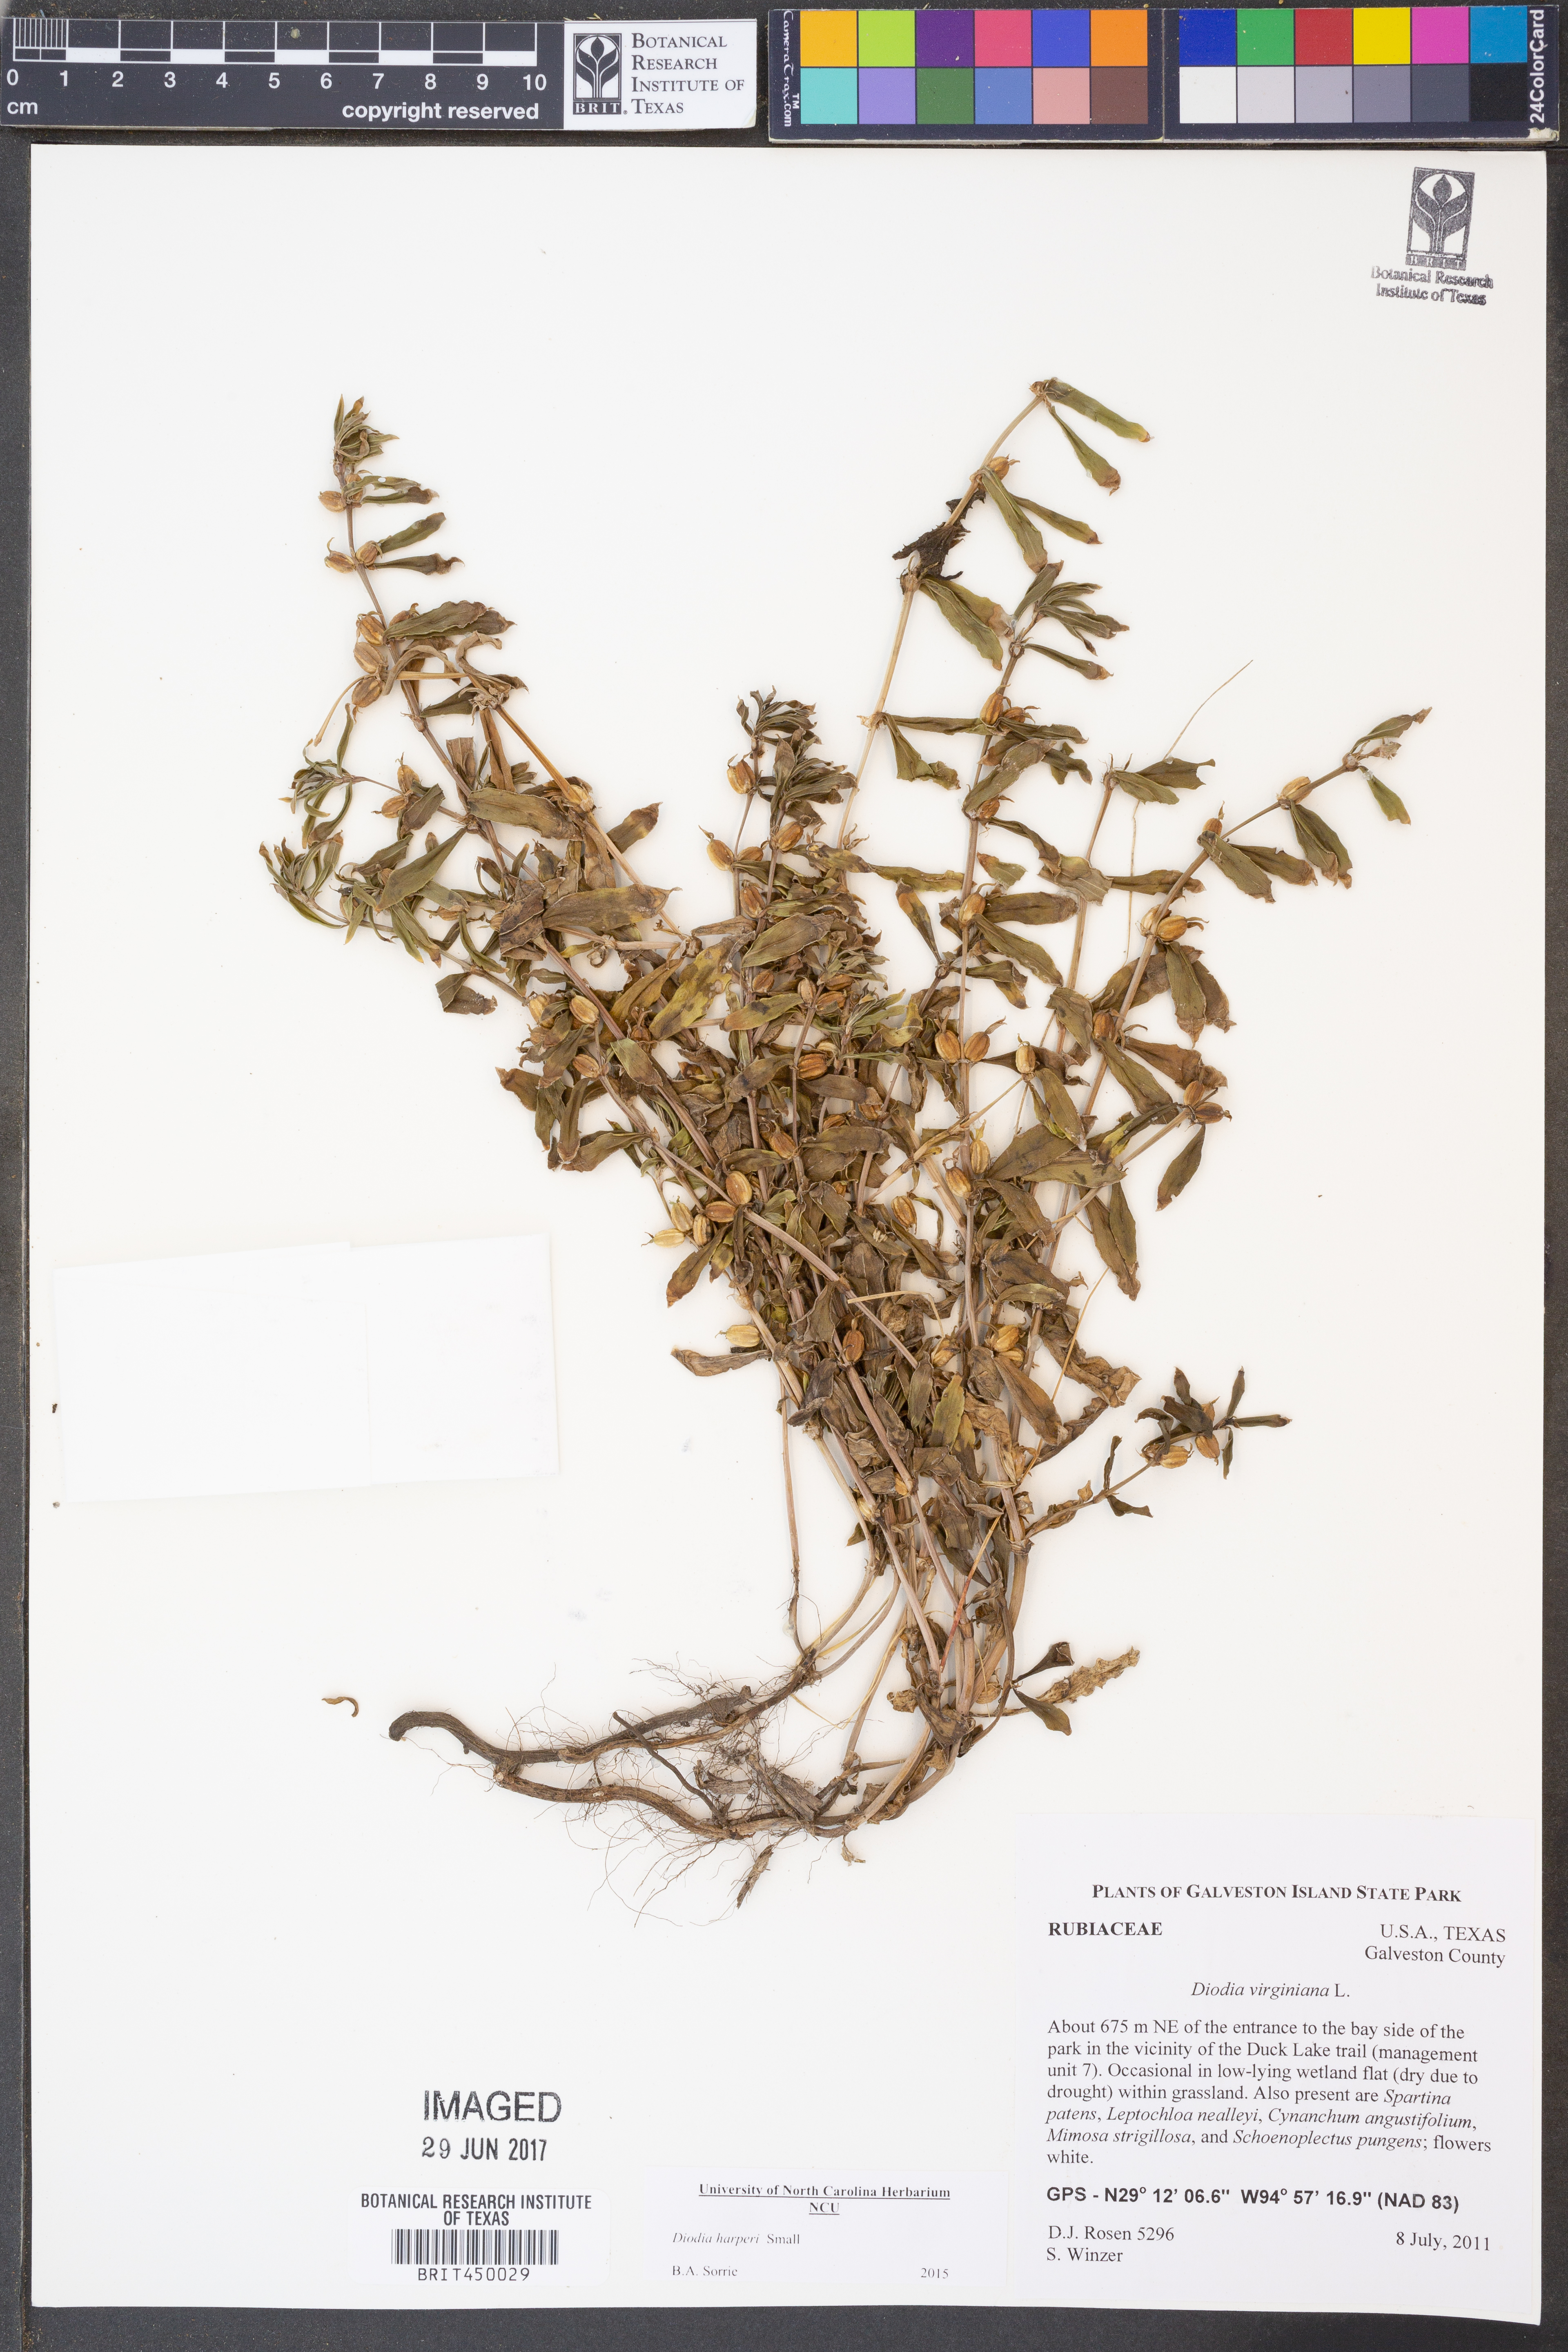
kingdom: Plantae
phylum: Tracheophyta
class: Magnoliopsida
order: Gentianales
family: Rubiaceae
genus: Diodia
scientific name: Diodia virginiana
